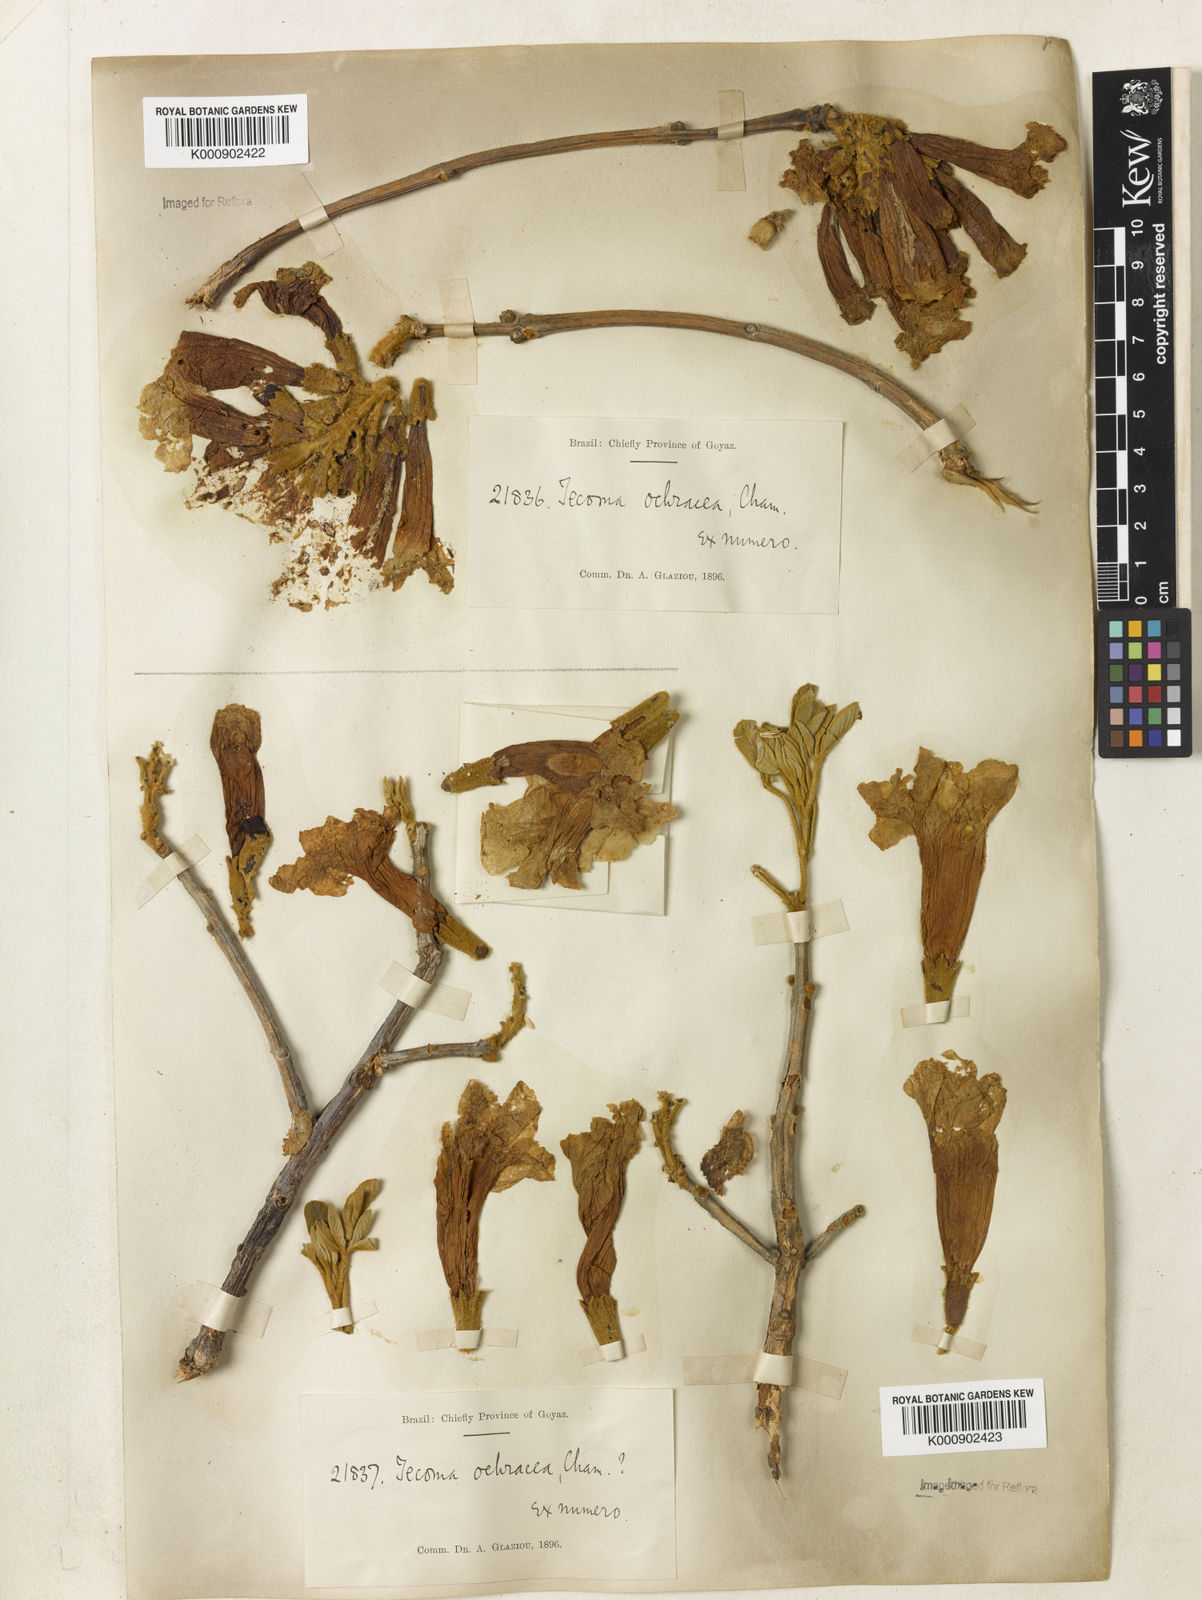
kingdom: Plantae
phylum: Tracheophyta
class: Magnoliopsida
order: Lamiales
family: Bignoniaceae
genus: Handroanthus
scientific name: Handroanthus ochraceus
